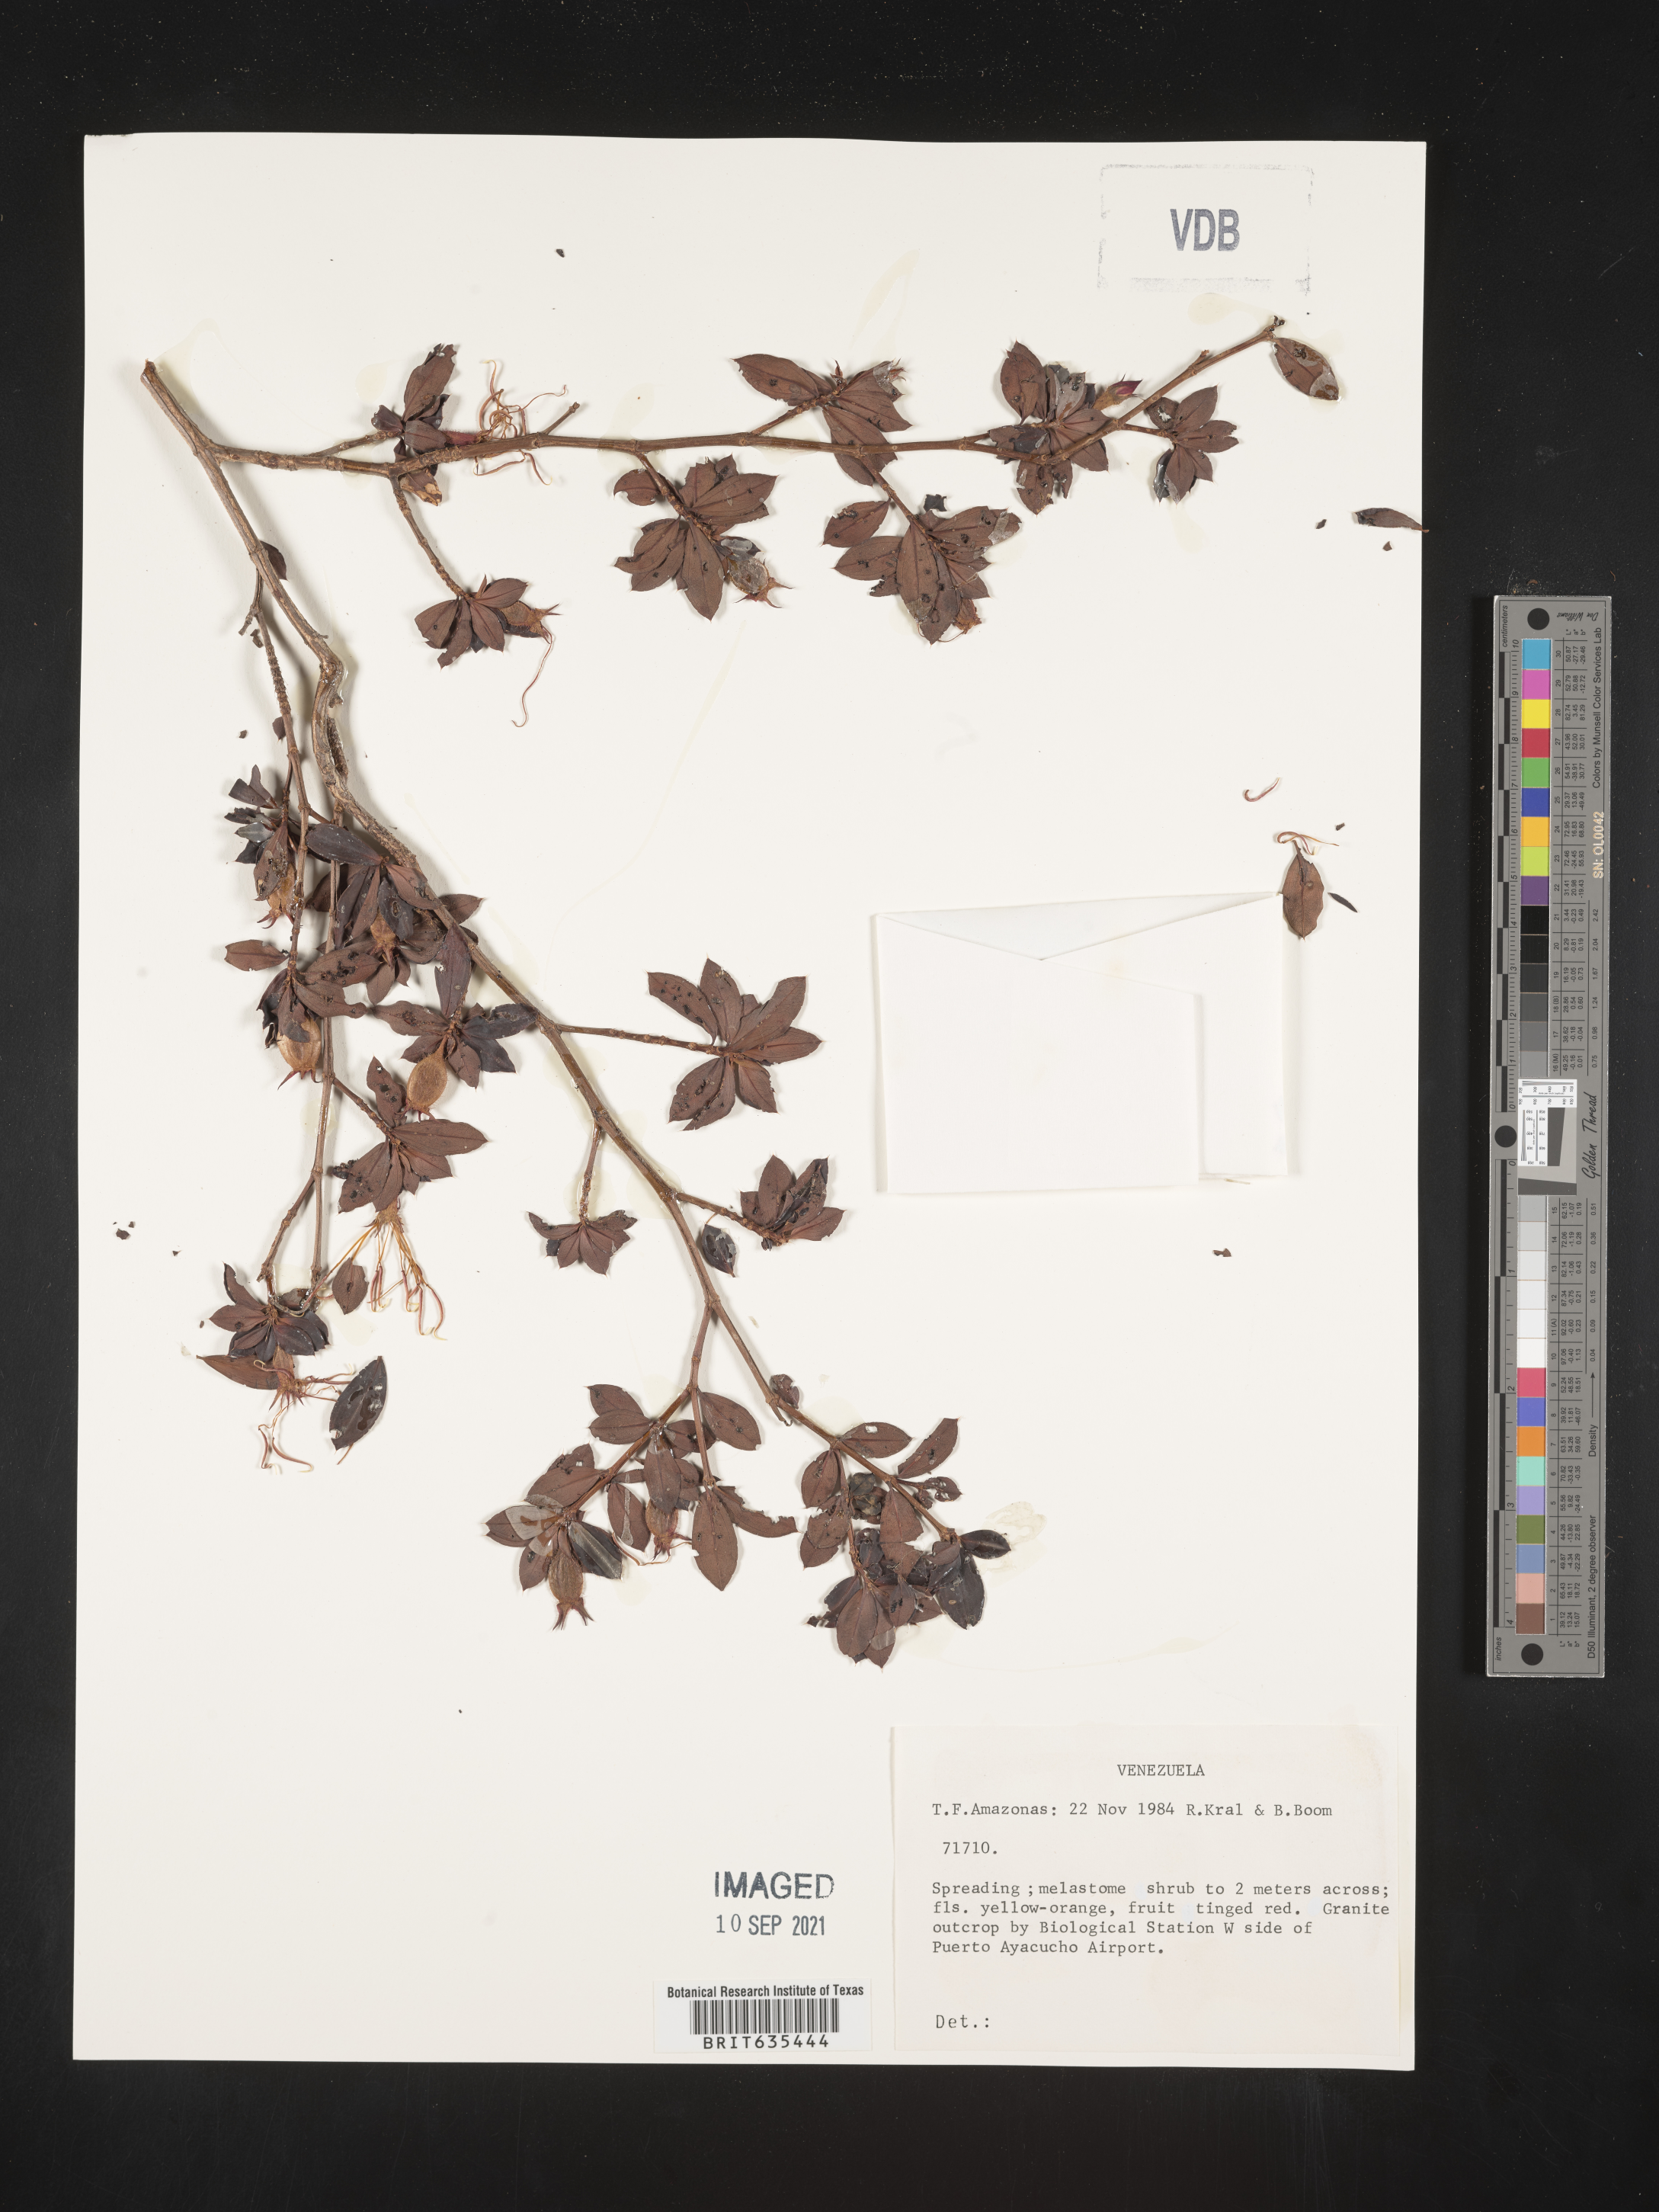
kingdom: Plantae
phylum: Tracheophyta
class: Magnoliopsida
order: Myrtales
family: Melastomataceae
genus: Acanthella
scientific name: Acanthella
